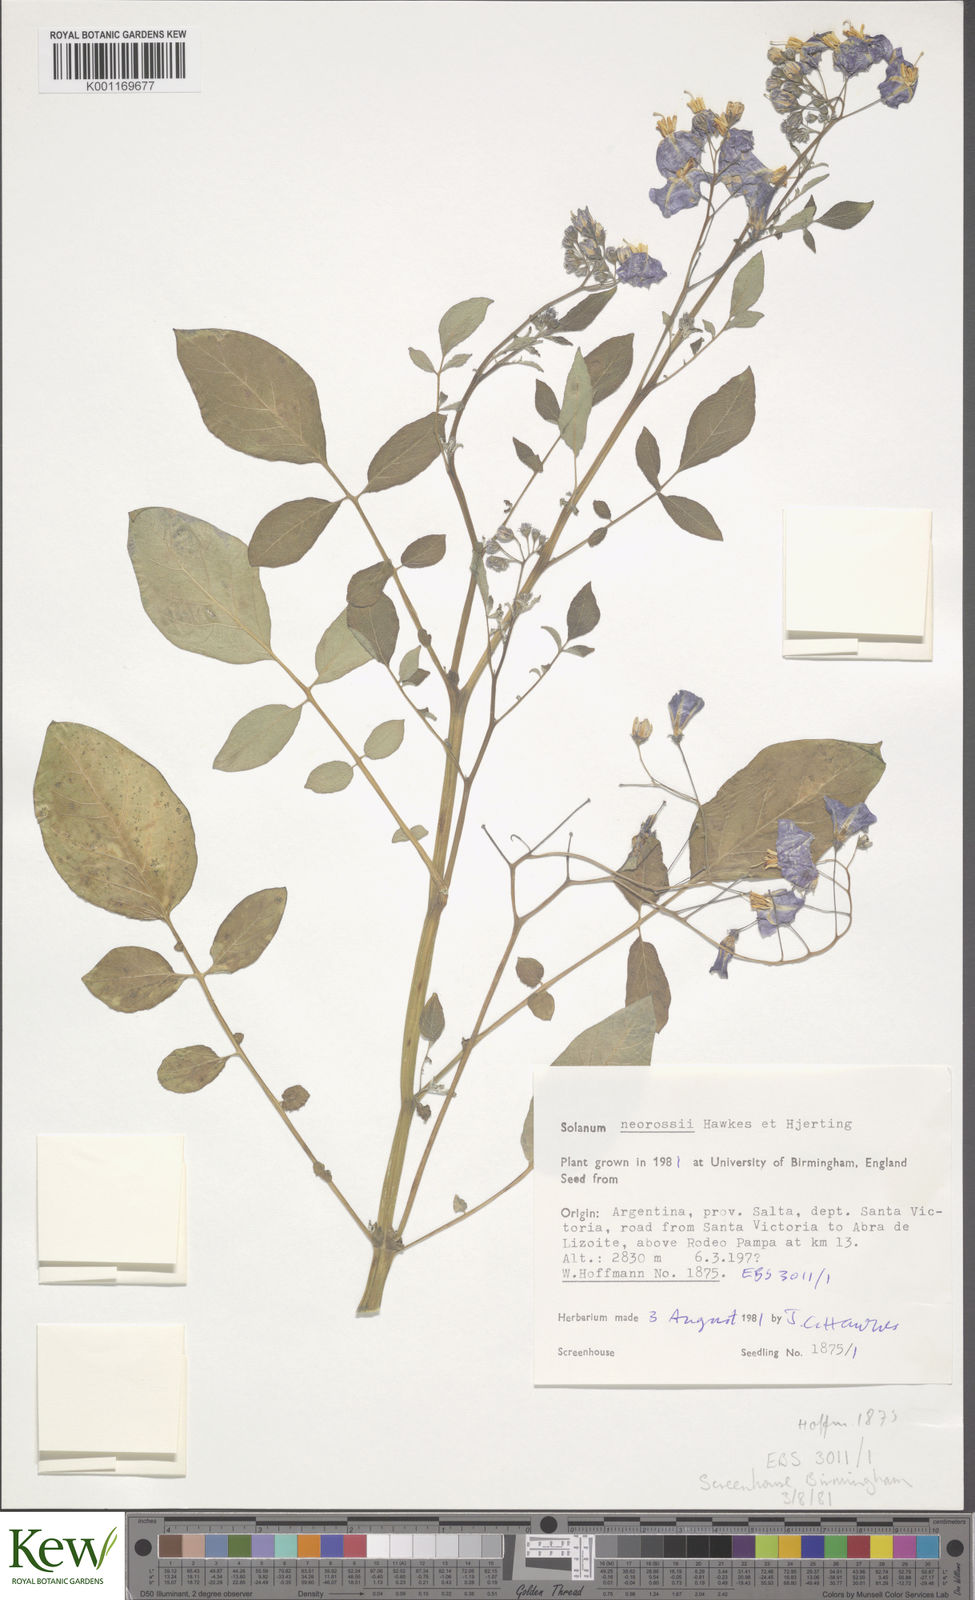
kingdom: Plantae
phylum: Tracheophyta
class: Magnoliopsida
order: Solanales
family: Solanaceae
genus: Solanum
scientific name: Solanum neorossii
